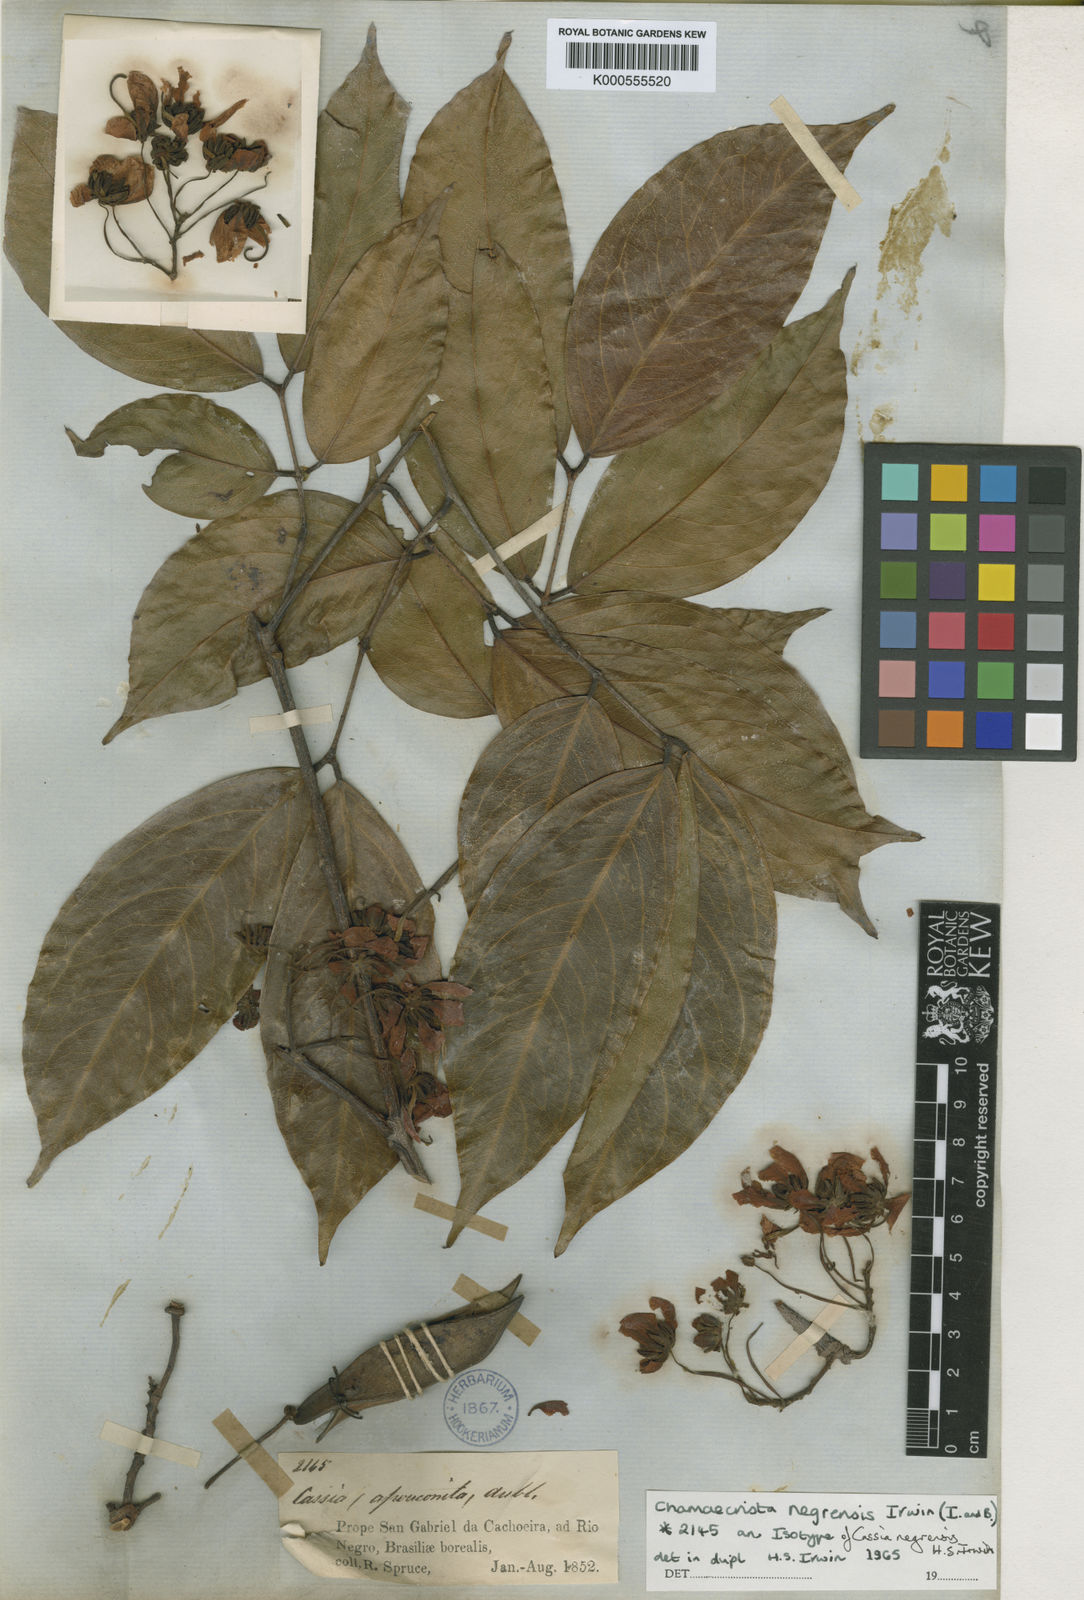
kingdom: Plantae
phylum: Tracheophyta
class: Magnoliopsida
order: Fabales
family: Fabaceae
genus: Chamaecrista
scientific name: Chamaecrista negrensis
